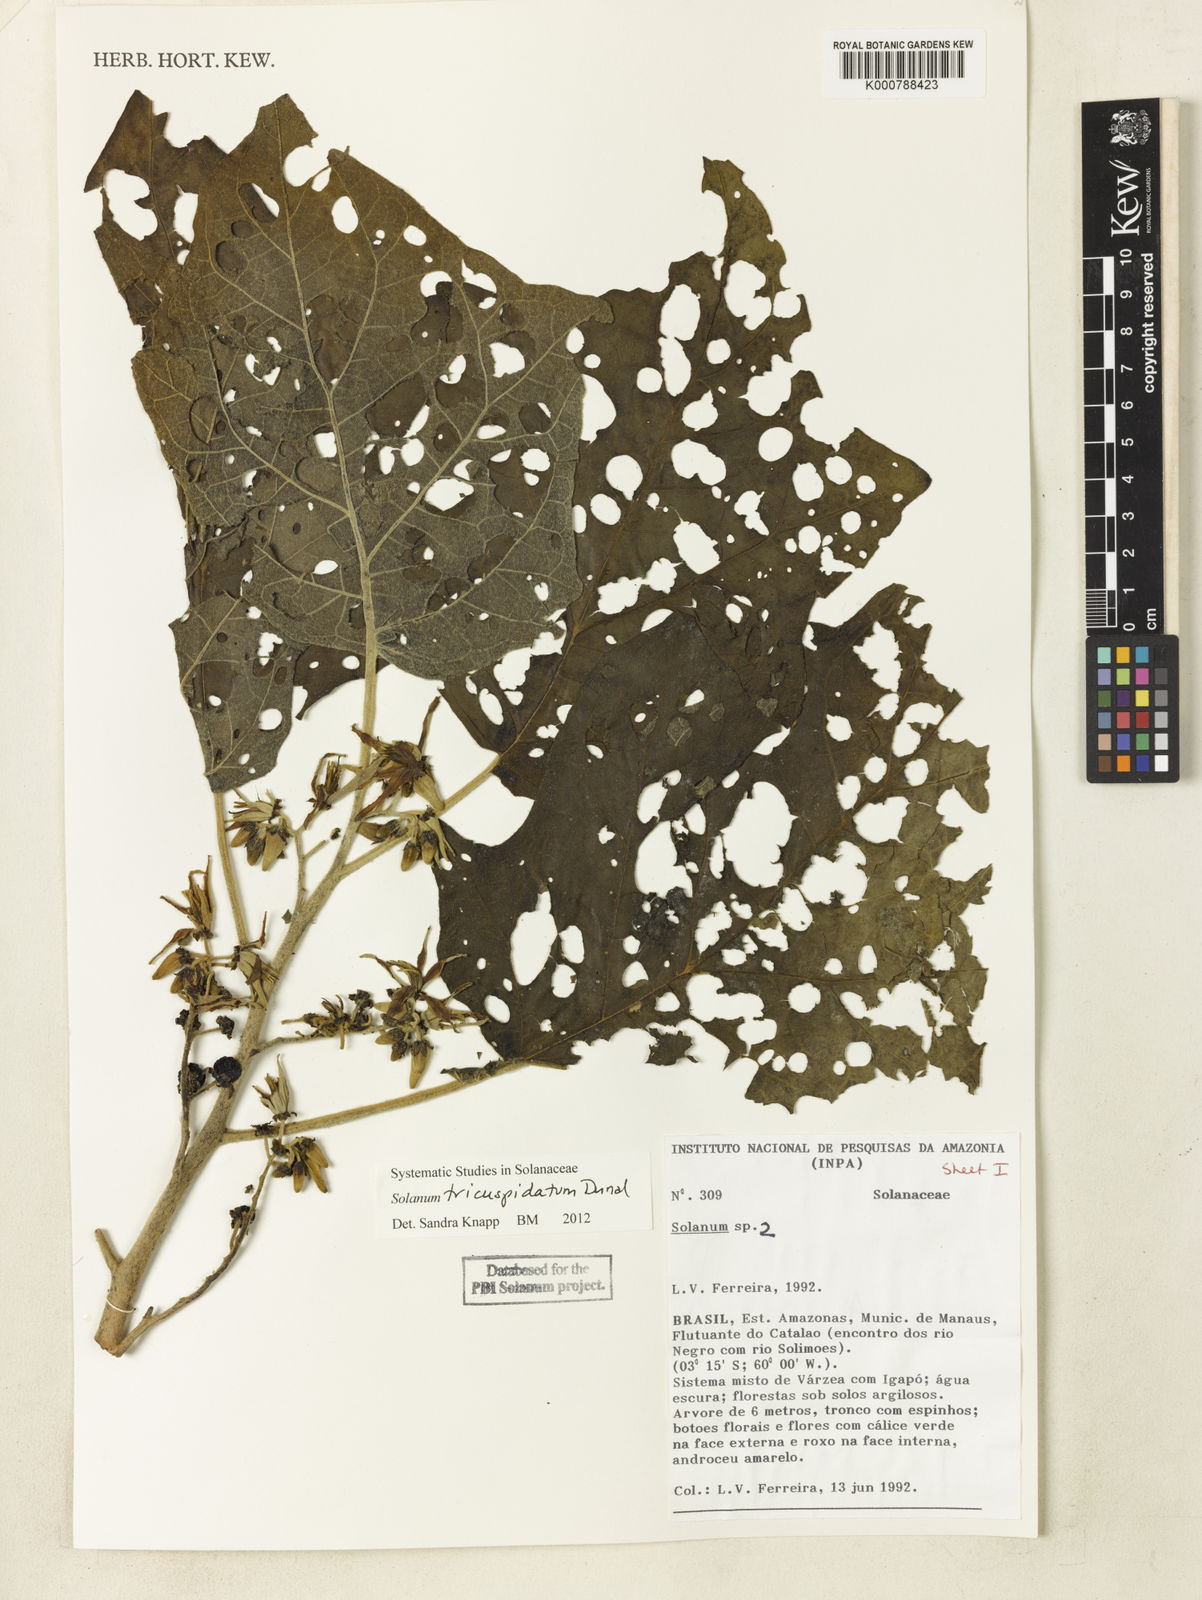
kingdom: Plantae
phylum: Tracheophyta
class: Magnoliopsida
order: Solanales
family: Solanaceae
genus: Solanum
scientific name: Solanum tricuspidatum
